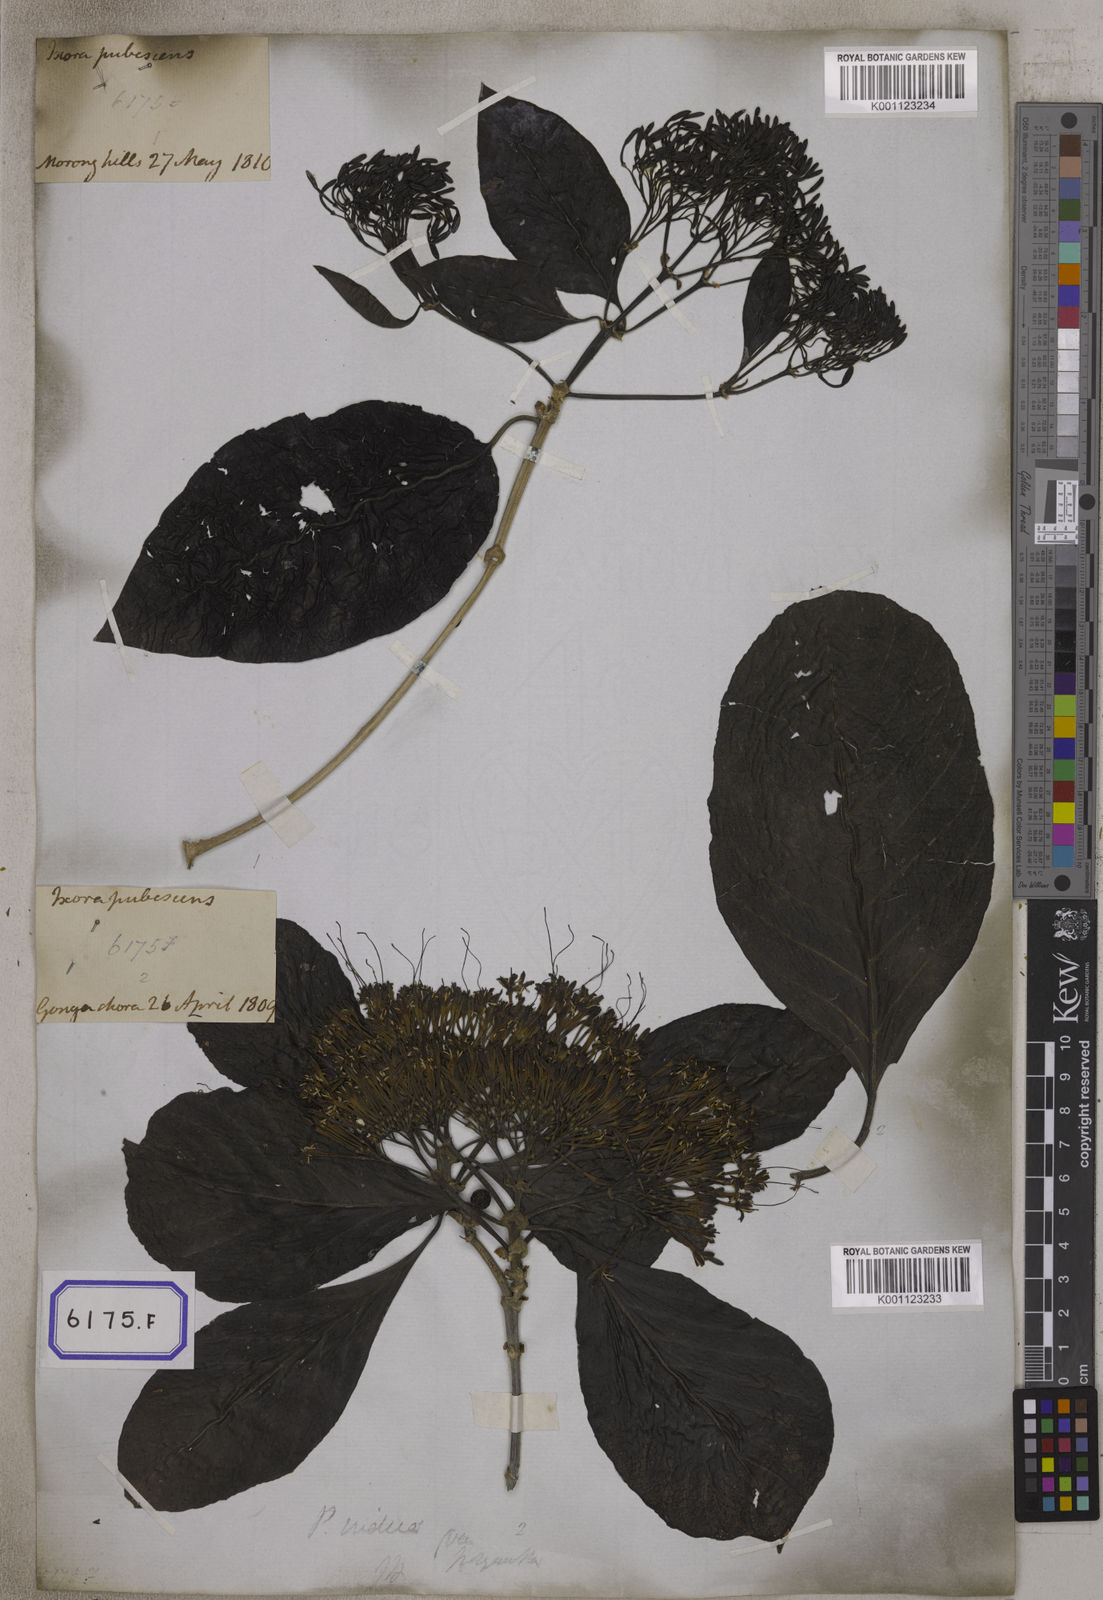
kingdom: Plantae
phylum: Tracheophyta
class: Magnoliopsida
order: Gentianales
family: Rubiaceae
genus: Pavetta
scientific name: Pavetta indica
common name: Indian pavetta
